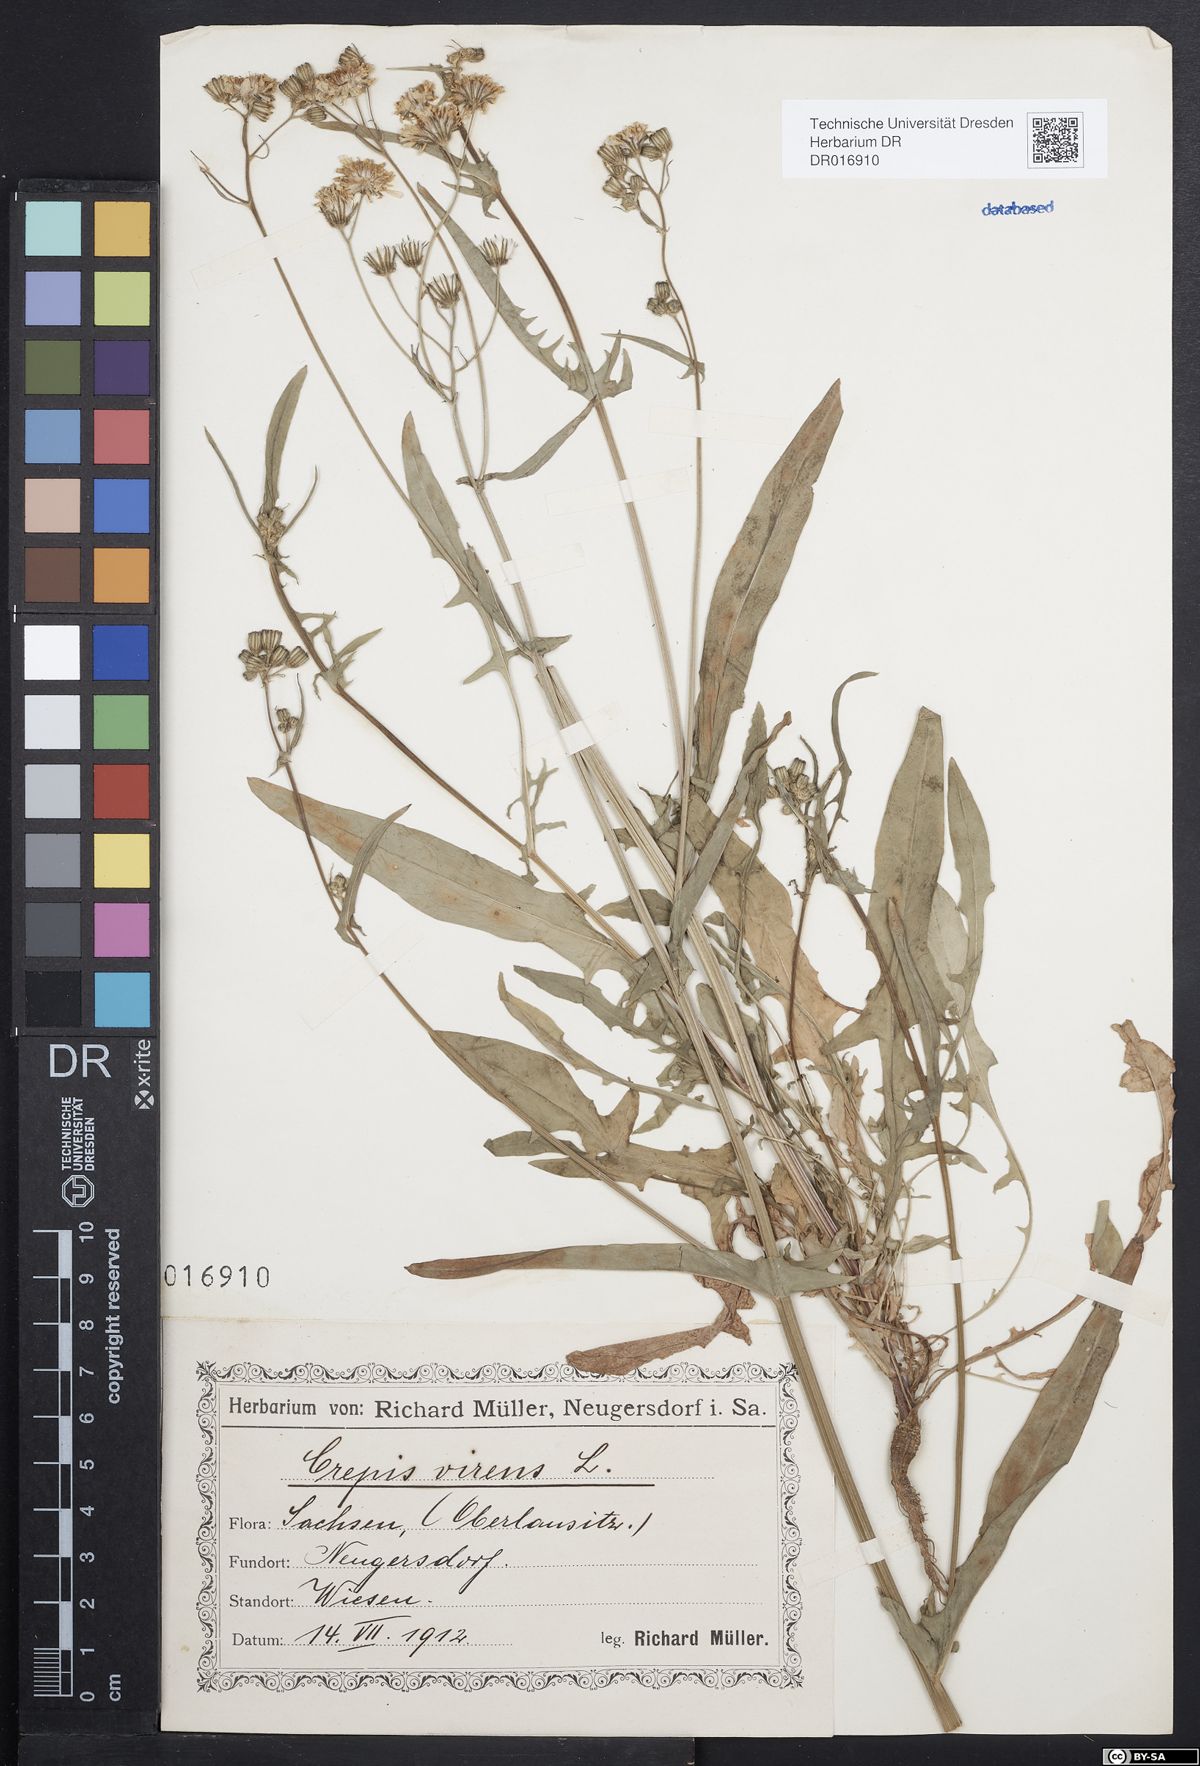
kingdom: Plantae
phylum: Tracheophyta
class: Magnoliopsida
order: Asterales
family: Asteraceae
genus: Crepis
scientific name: Crepis capillaris
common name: Smooth hawksbeard
